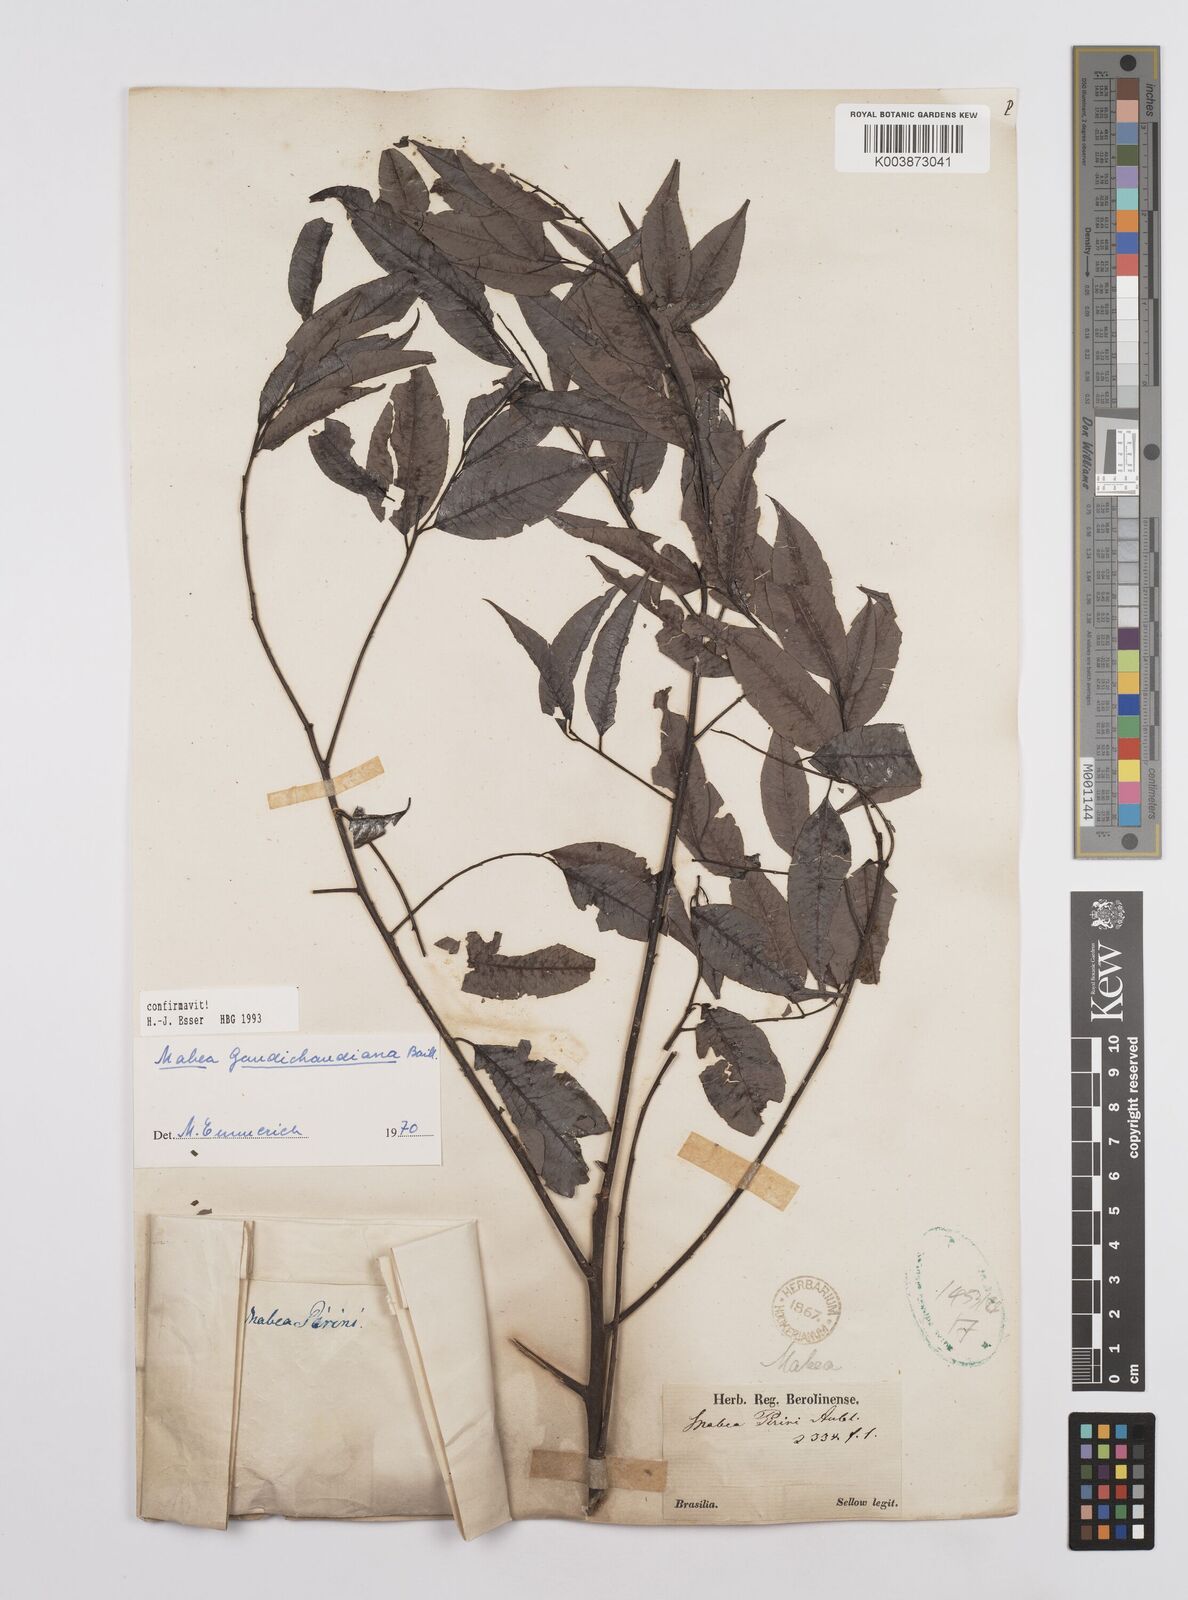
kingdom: Plantae
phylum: Tracheophyta
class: Magnoliopsida
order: Malpighiales
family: Euphorbiaceae
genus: Mabea
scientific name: Mabea gaudichaudiana
